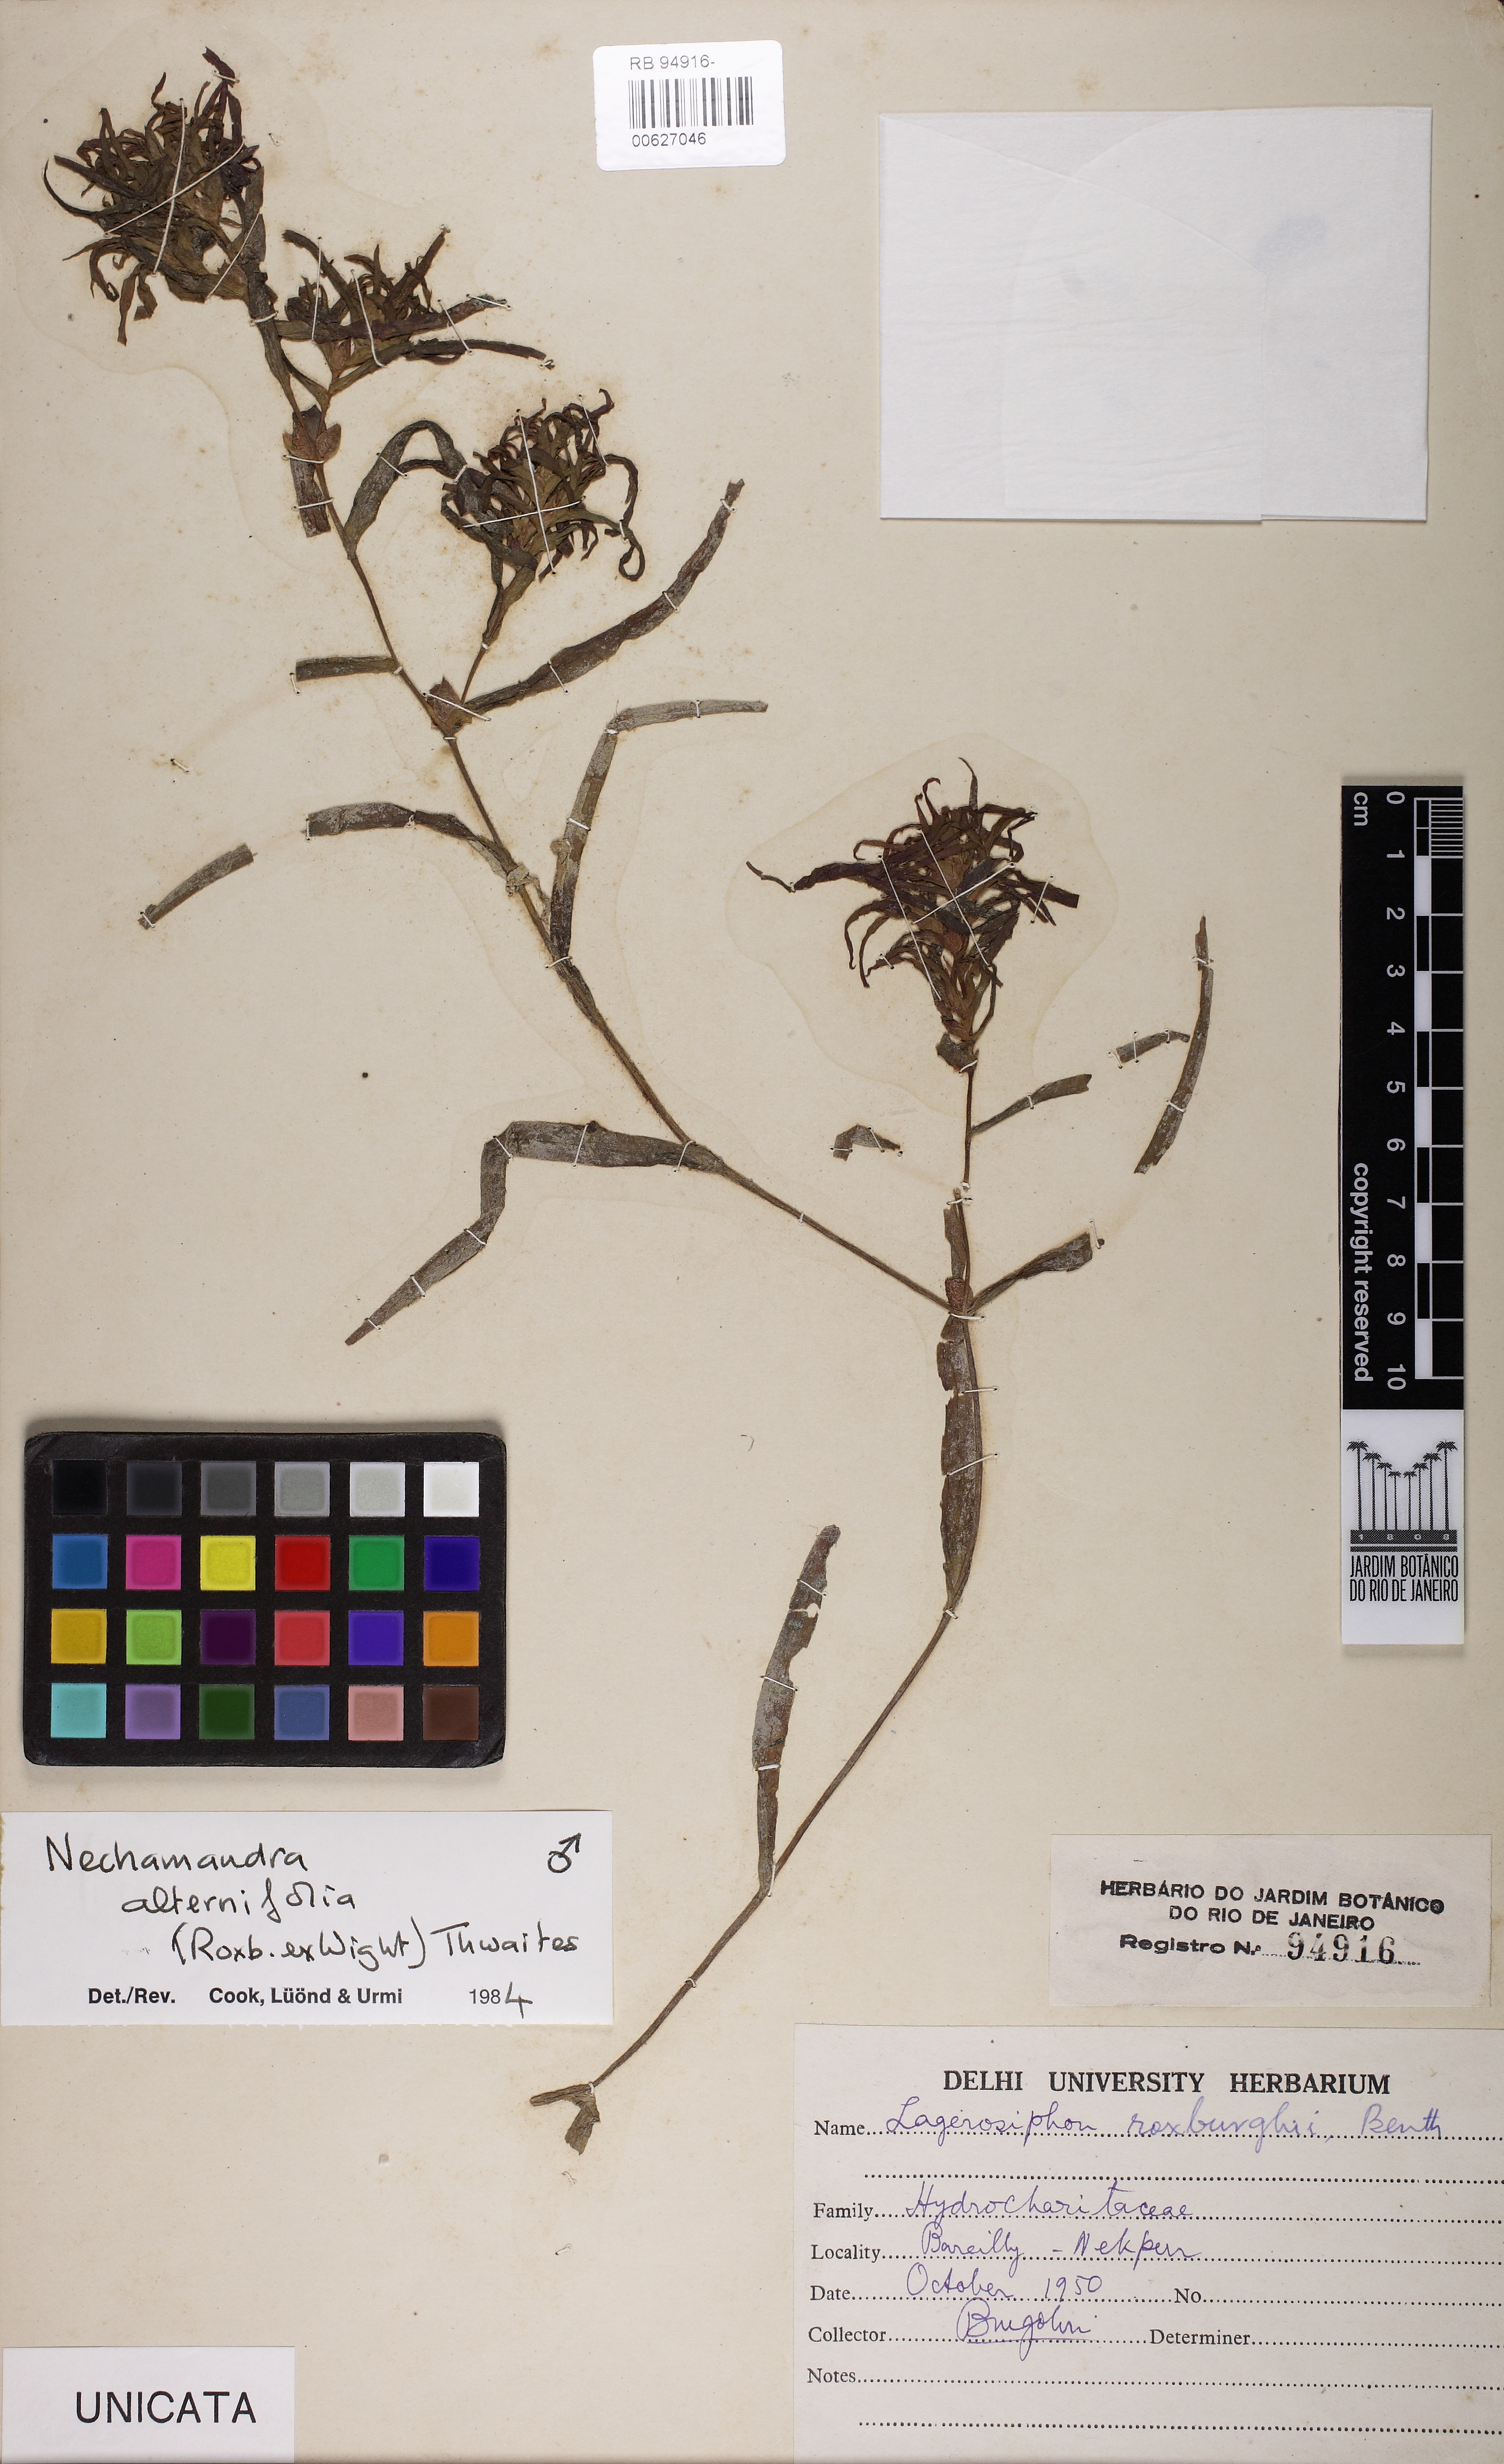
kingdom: Plantae
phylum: Tracheophyta
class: Liliopsida
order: Alismatales
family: Hydrocharitaceae
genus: Nechamandra
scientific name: Nechamandra alternifolia
